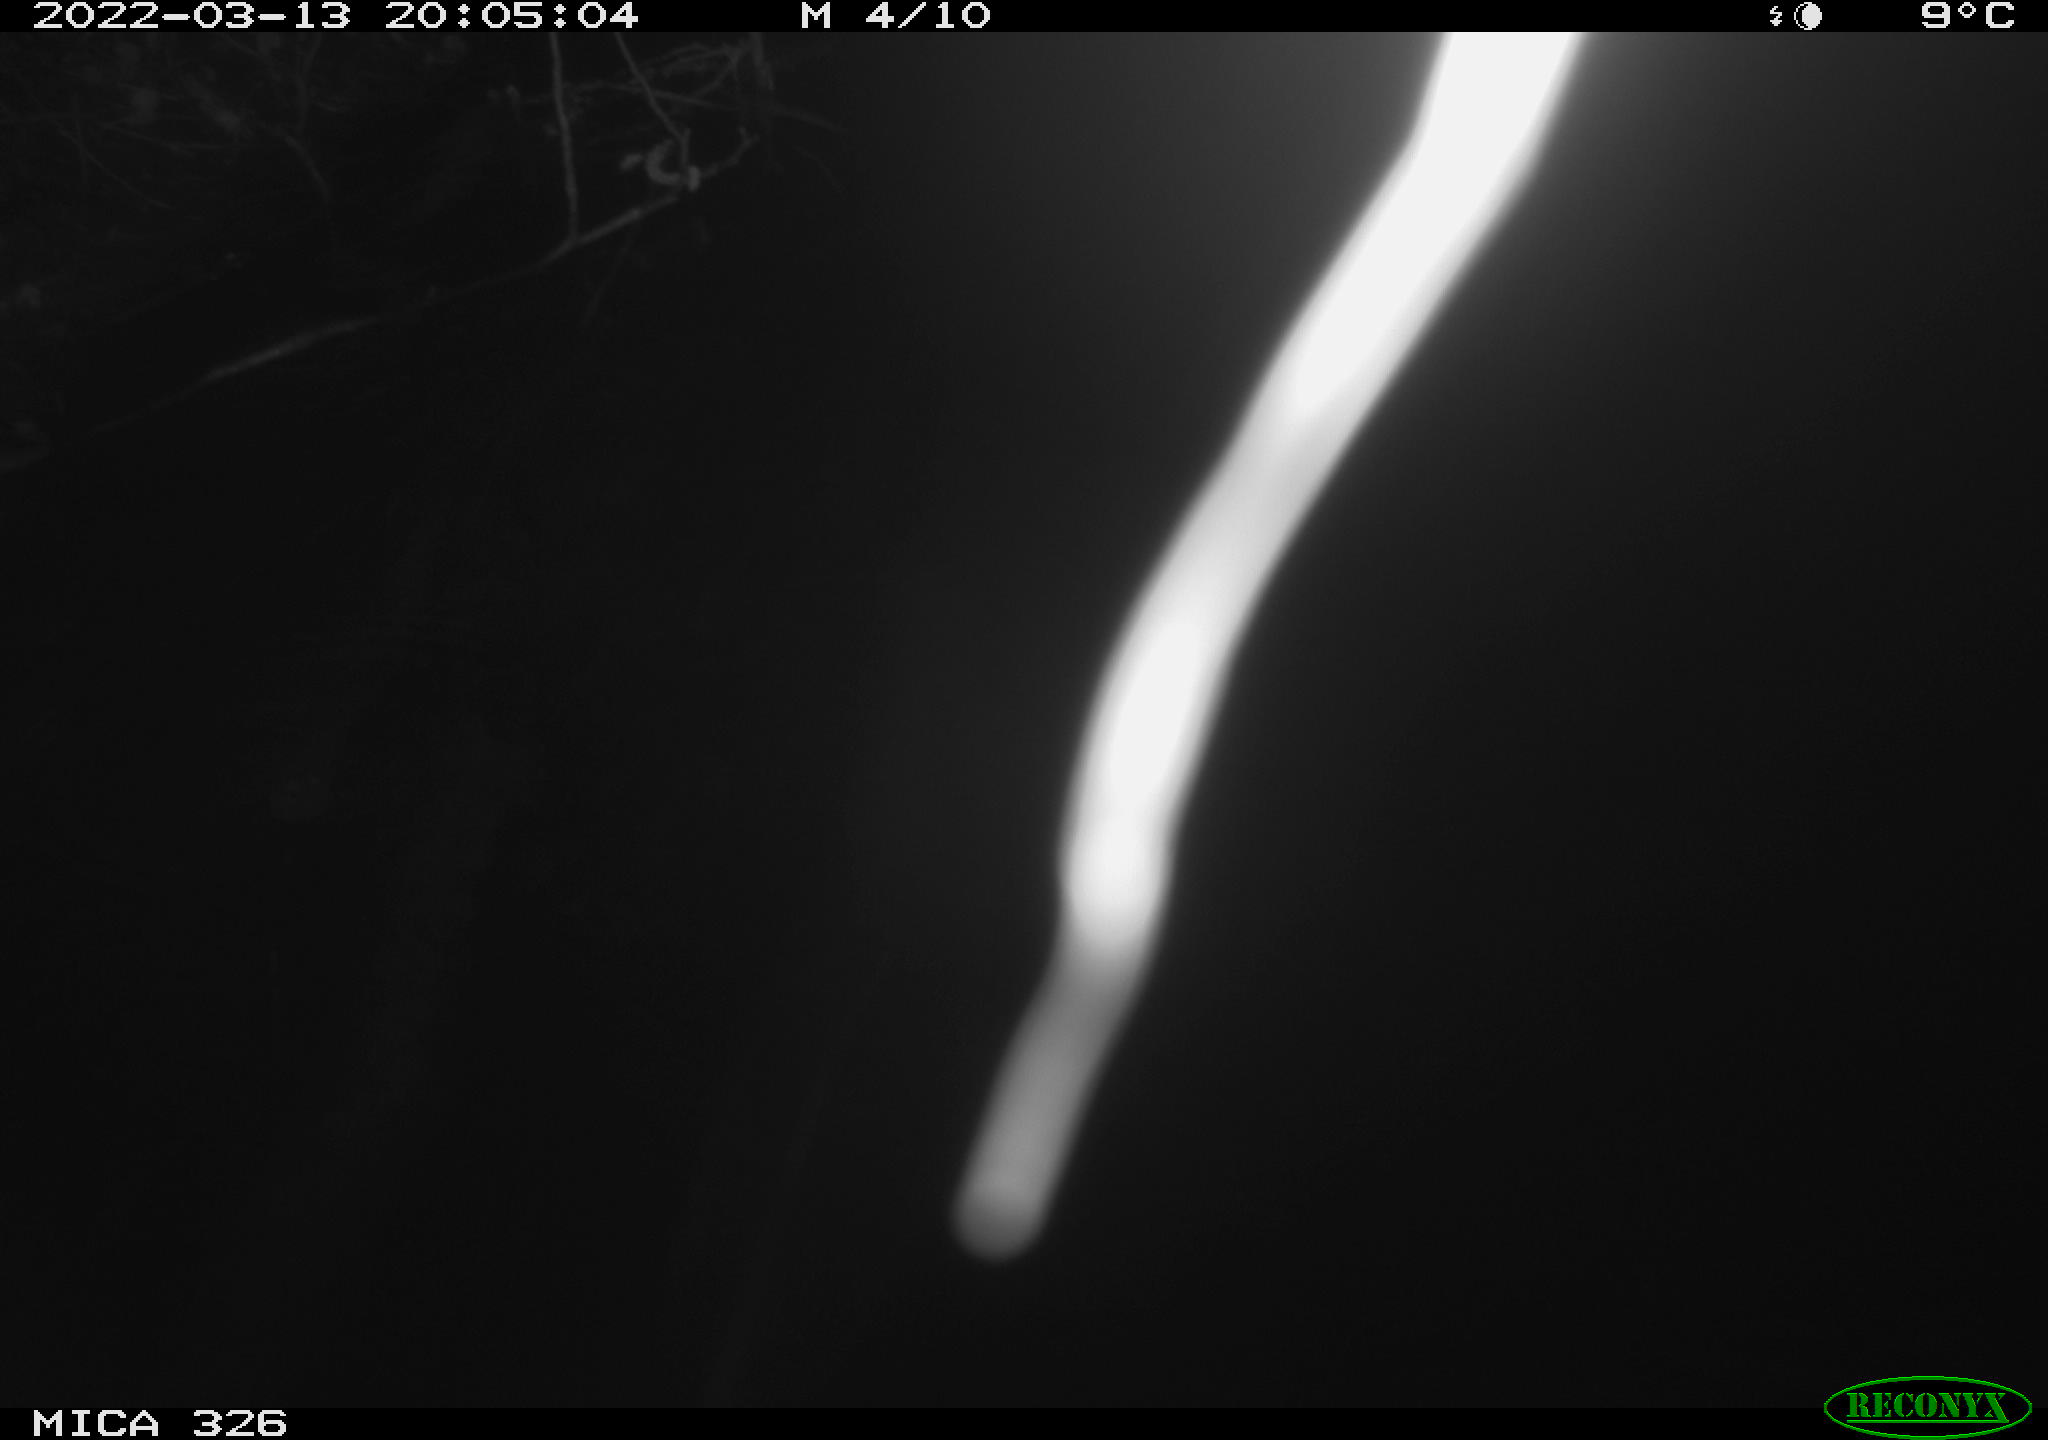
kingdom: Animalia
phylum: Chordata
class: Mammalia
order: Rodentia
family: Cricetidae
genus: Ondatra
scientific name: Ondatra zibethicus
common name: Muskrat
